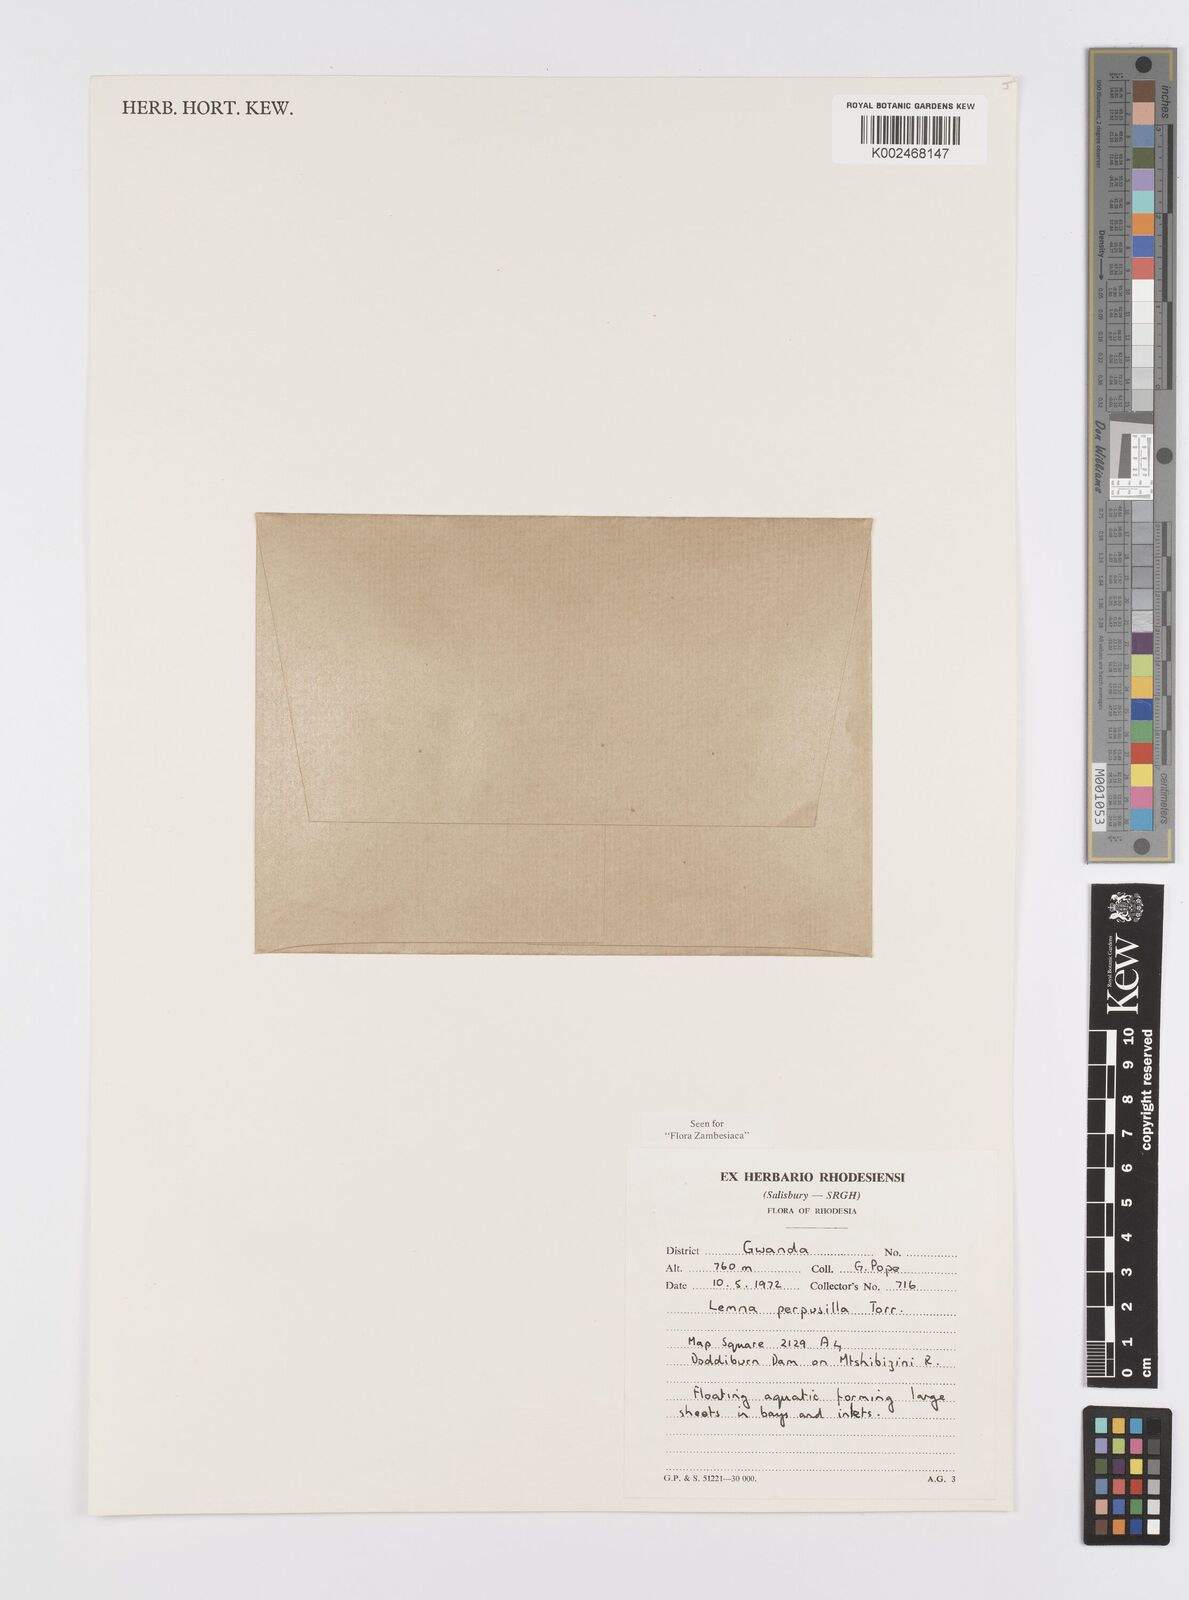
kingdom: Plantae
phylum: Tracheophyta
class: Liliopsida
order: Alismatales
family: Araceae
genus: Lemna
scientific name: Lemna aequinoctialis
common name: Duckweed
